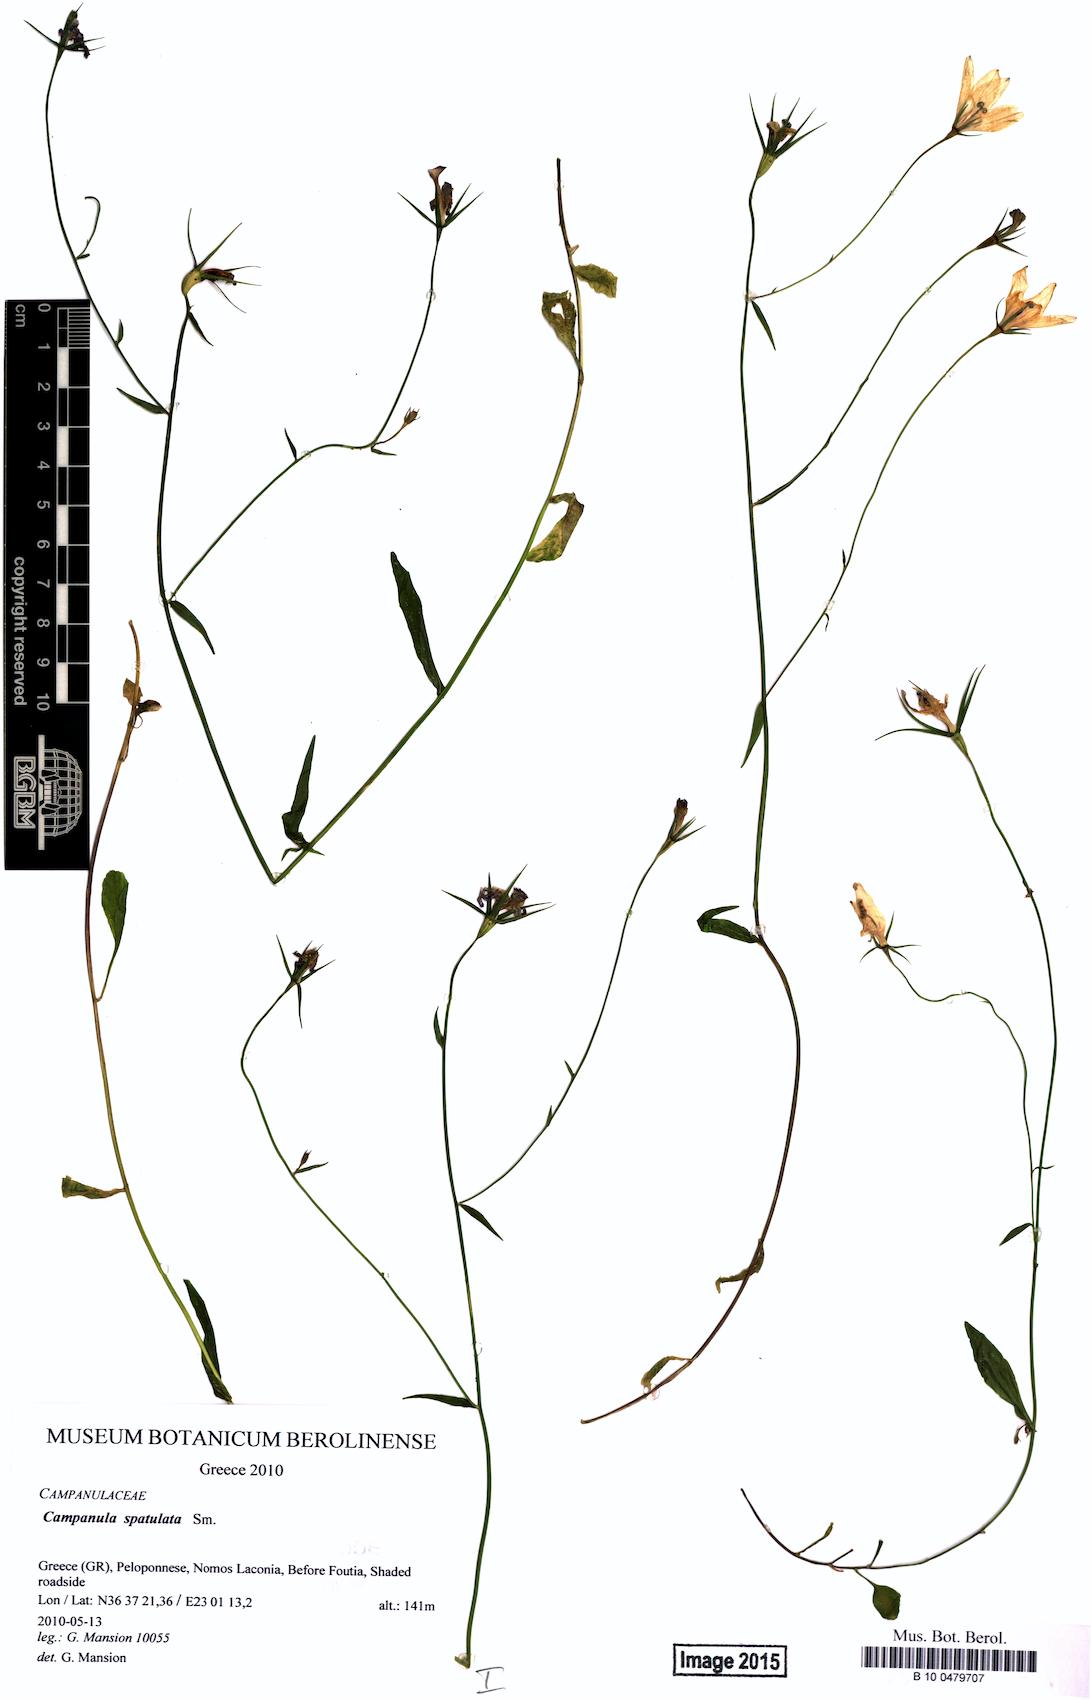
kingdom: Plantae
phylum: Tracheophyta
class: Magnoliopsida
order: Asterales
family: Campanulaceae
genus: Campanula
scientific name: Campanula spatulata
